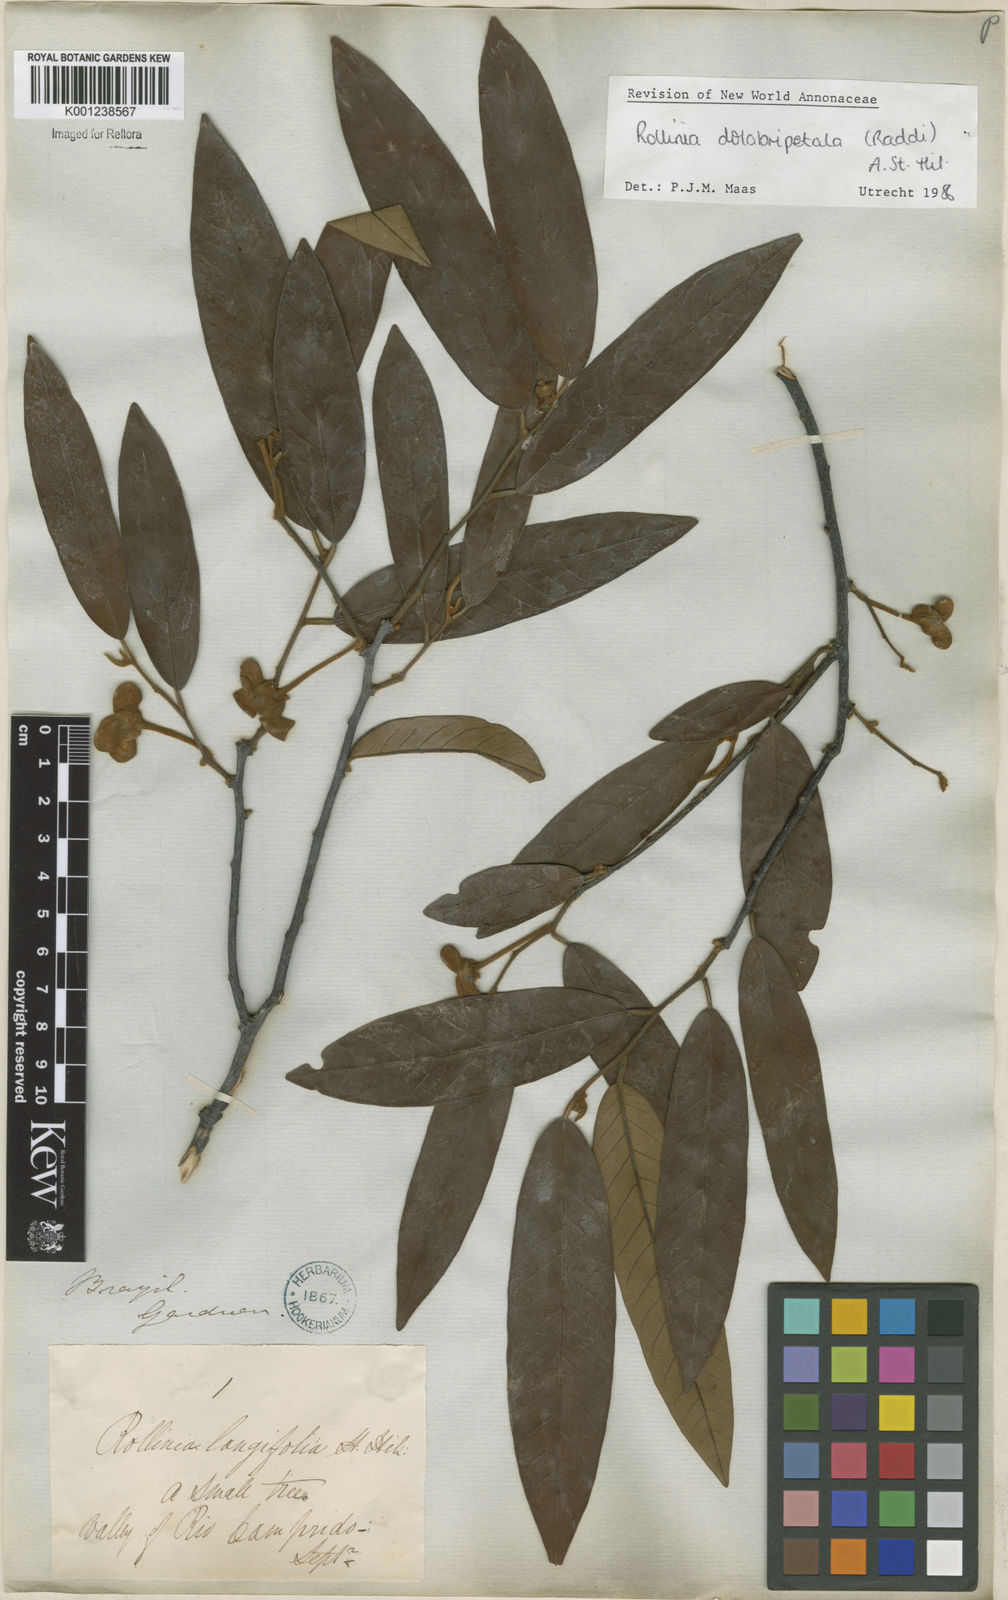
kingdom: Plantae
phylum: Tracheophyta
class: Magnoliopsida
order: Magnoliales
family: Annonaceae
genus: Annona
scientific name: Annona
